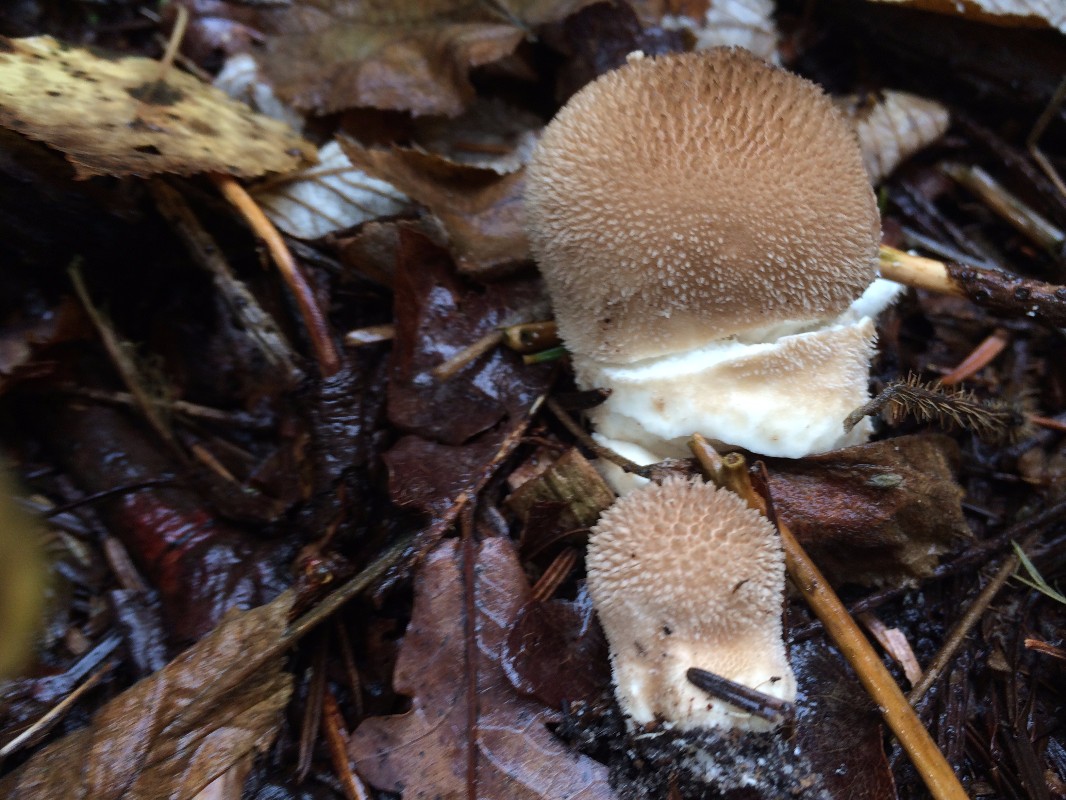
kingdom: Fungi
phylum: Basidiomycota
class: Agaricomycetes
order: Agaricales
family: Lycoperdaceae
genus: Apioperdon
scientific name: Apioperdon pyriforme
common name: pære-støvbold
